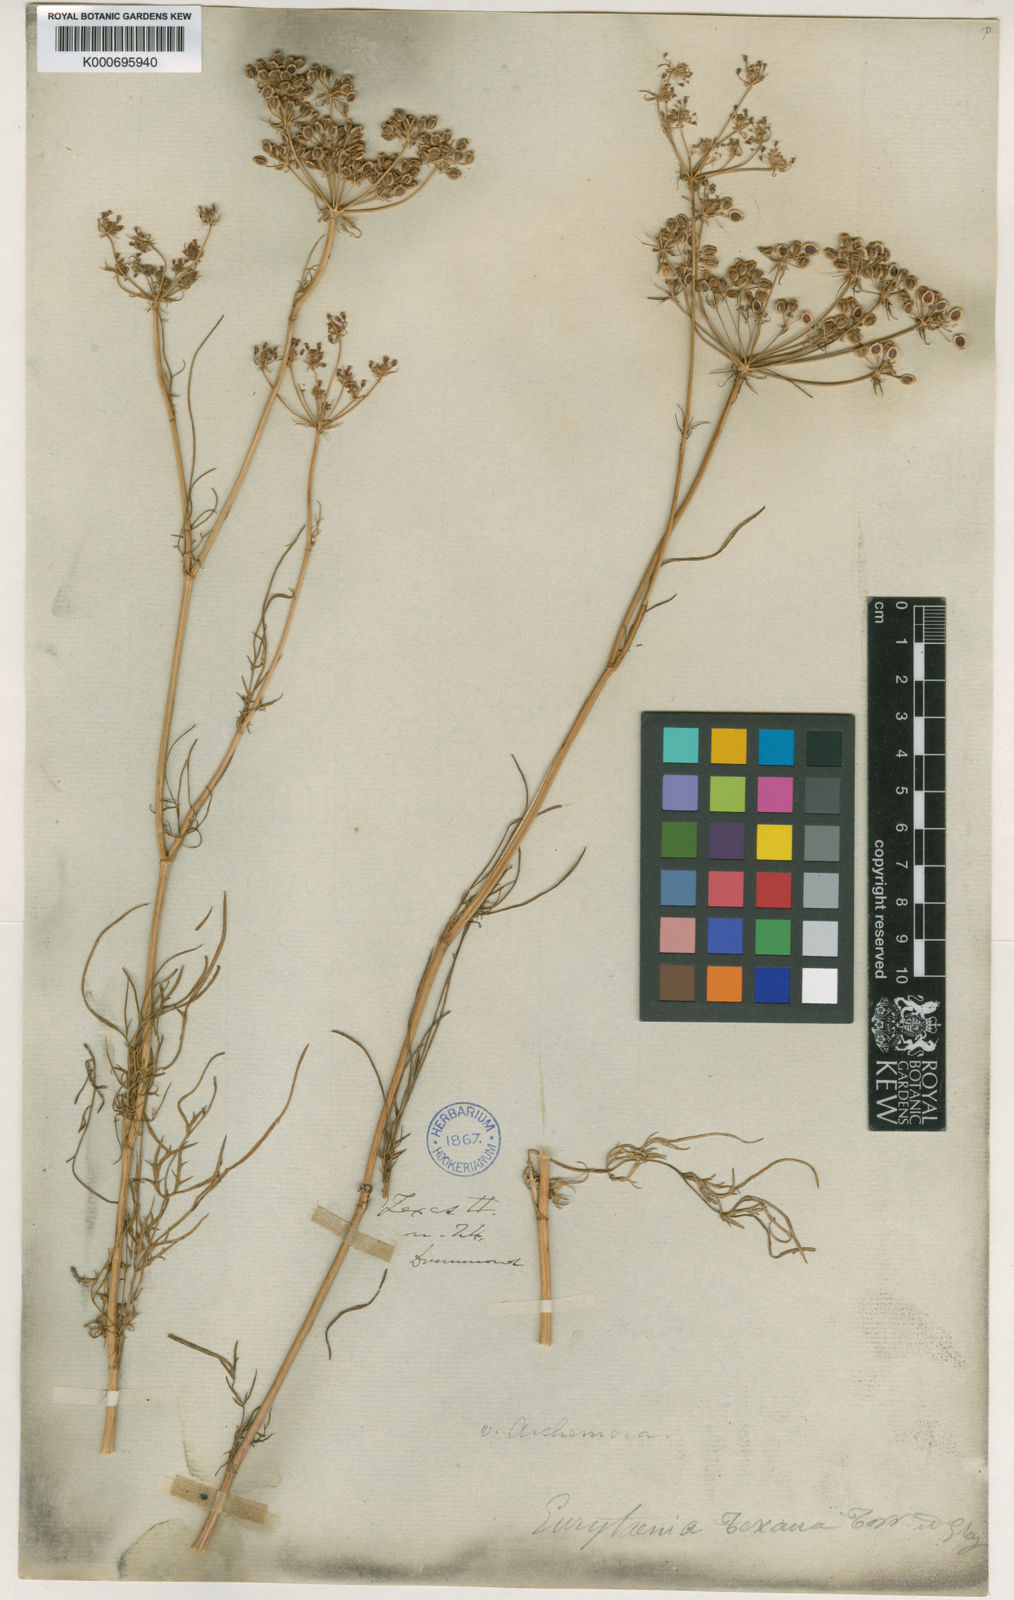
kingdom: Plantae
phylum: Tracheophyta
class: Magnoliopsida
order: Apiales
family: Apiaceae
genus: Eurytaenia
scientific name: Eurytaenia texana
